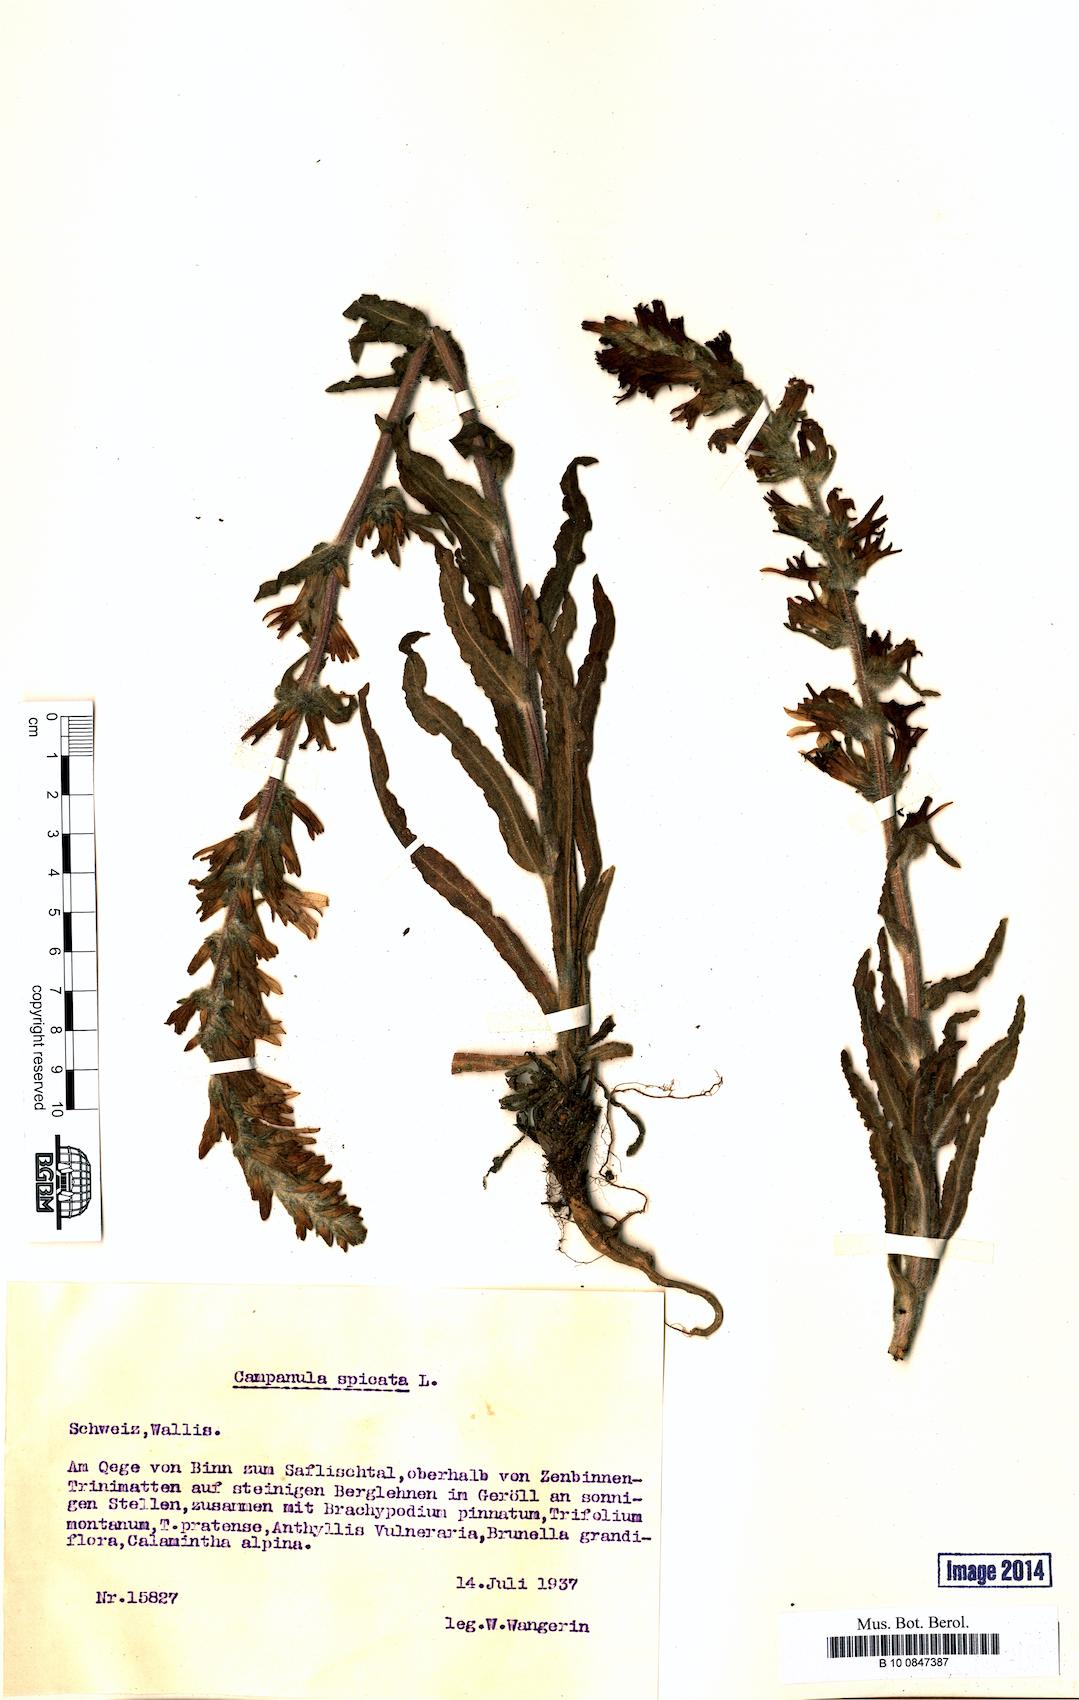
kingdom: Plantae
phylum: Tracheophyta
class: Magnoliopsida
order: Asterales
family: Campanulaceae
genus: Campanula
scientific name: Campanula spicata
